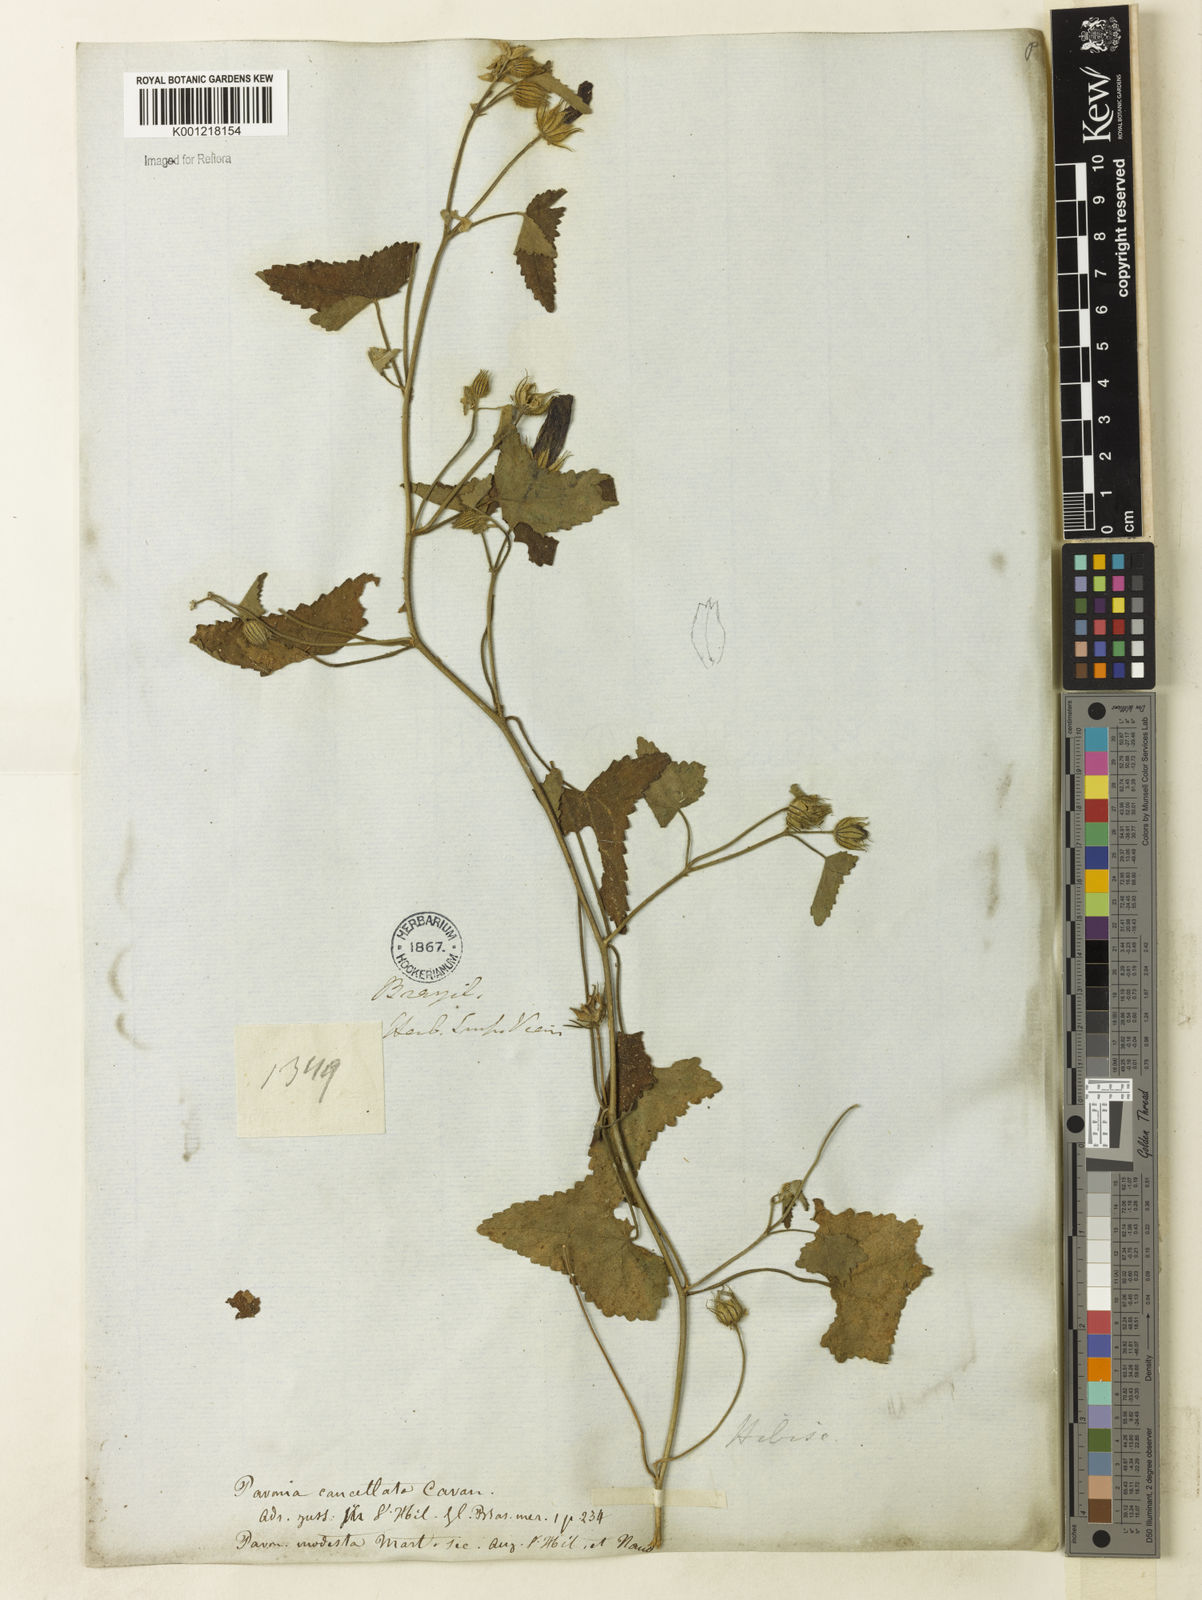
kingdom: Plantae
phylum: Tracheophyta
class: Magnoliopsida
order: Malvales
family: Malvaceae
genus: Pavonia
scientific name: Pavonia cancellata
